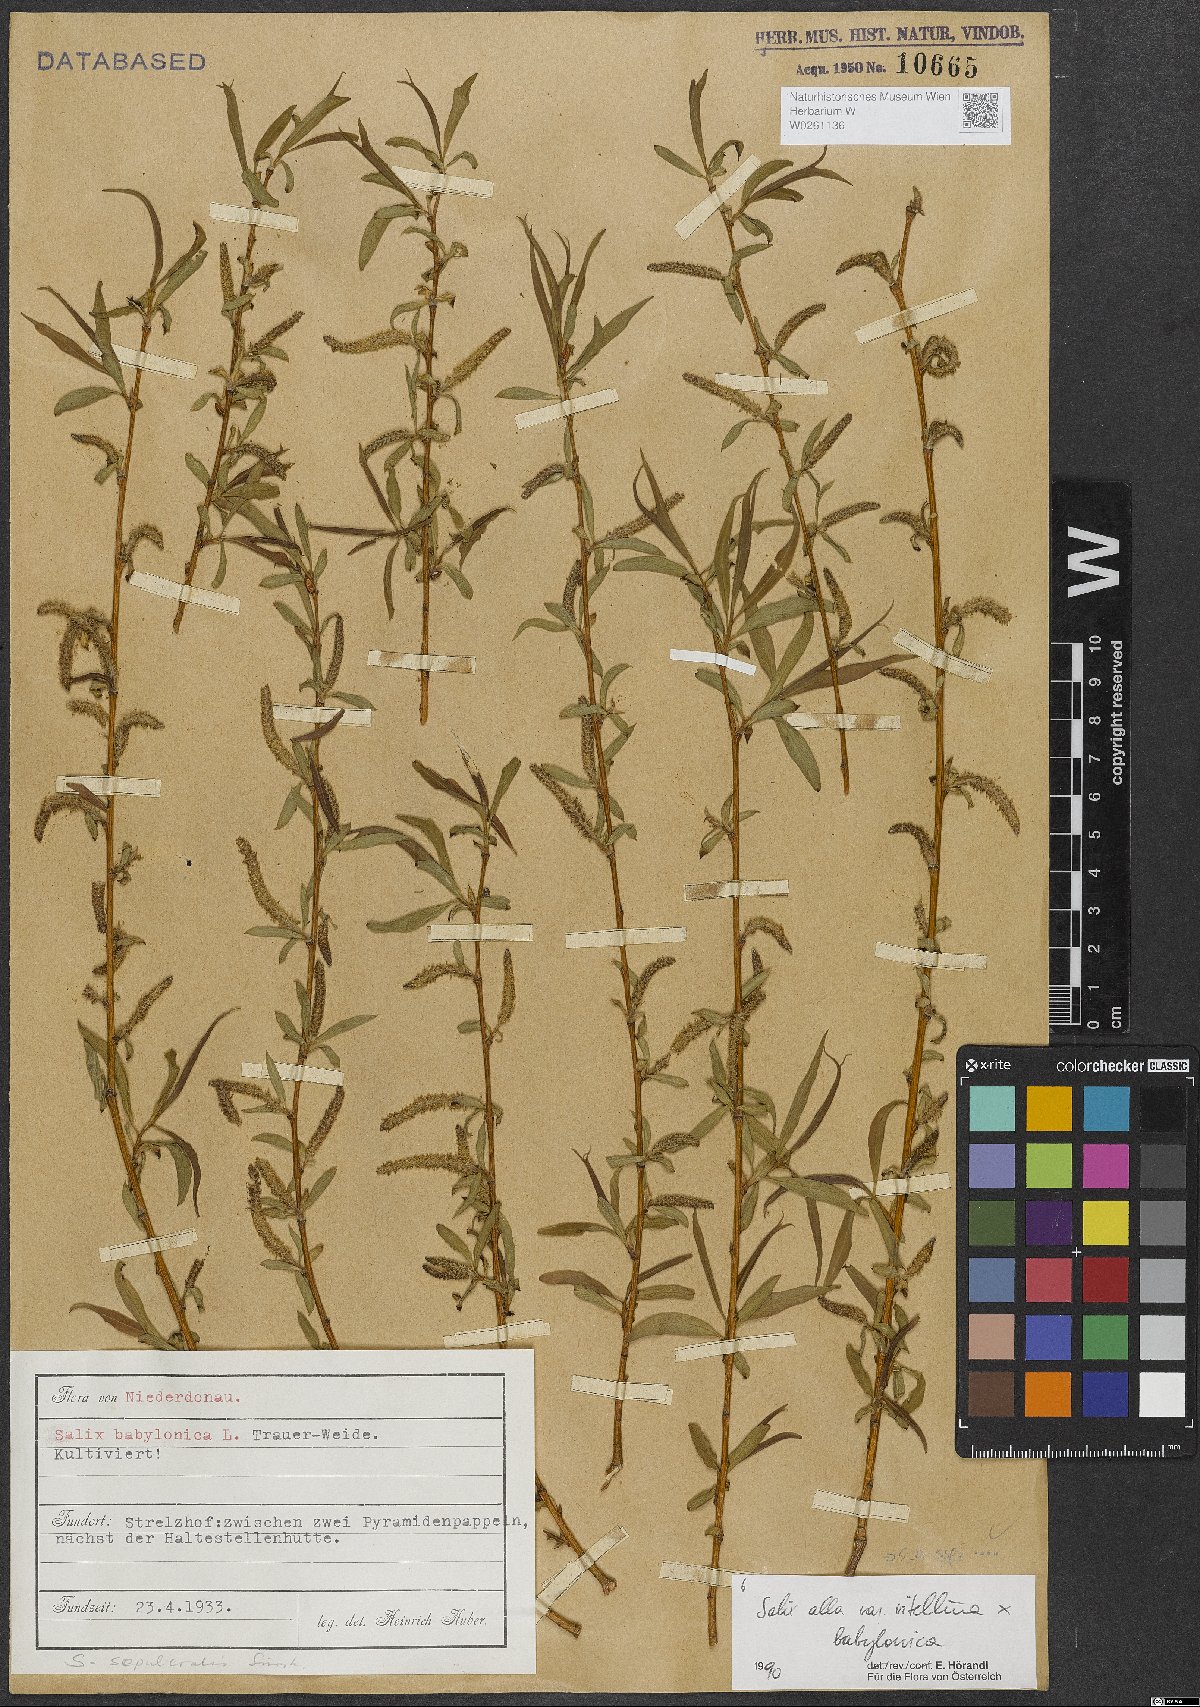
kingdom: Plantae
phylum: Tracheophyta
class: Magnoliopsida
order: Malpighiales
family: Salicaceae
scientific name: Salicaceae
